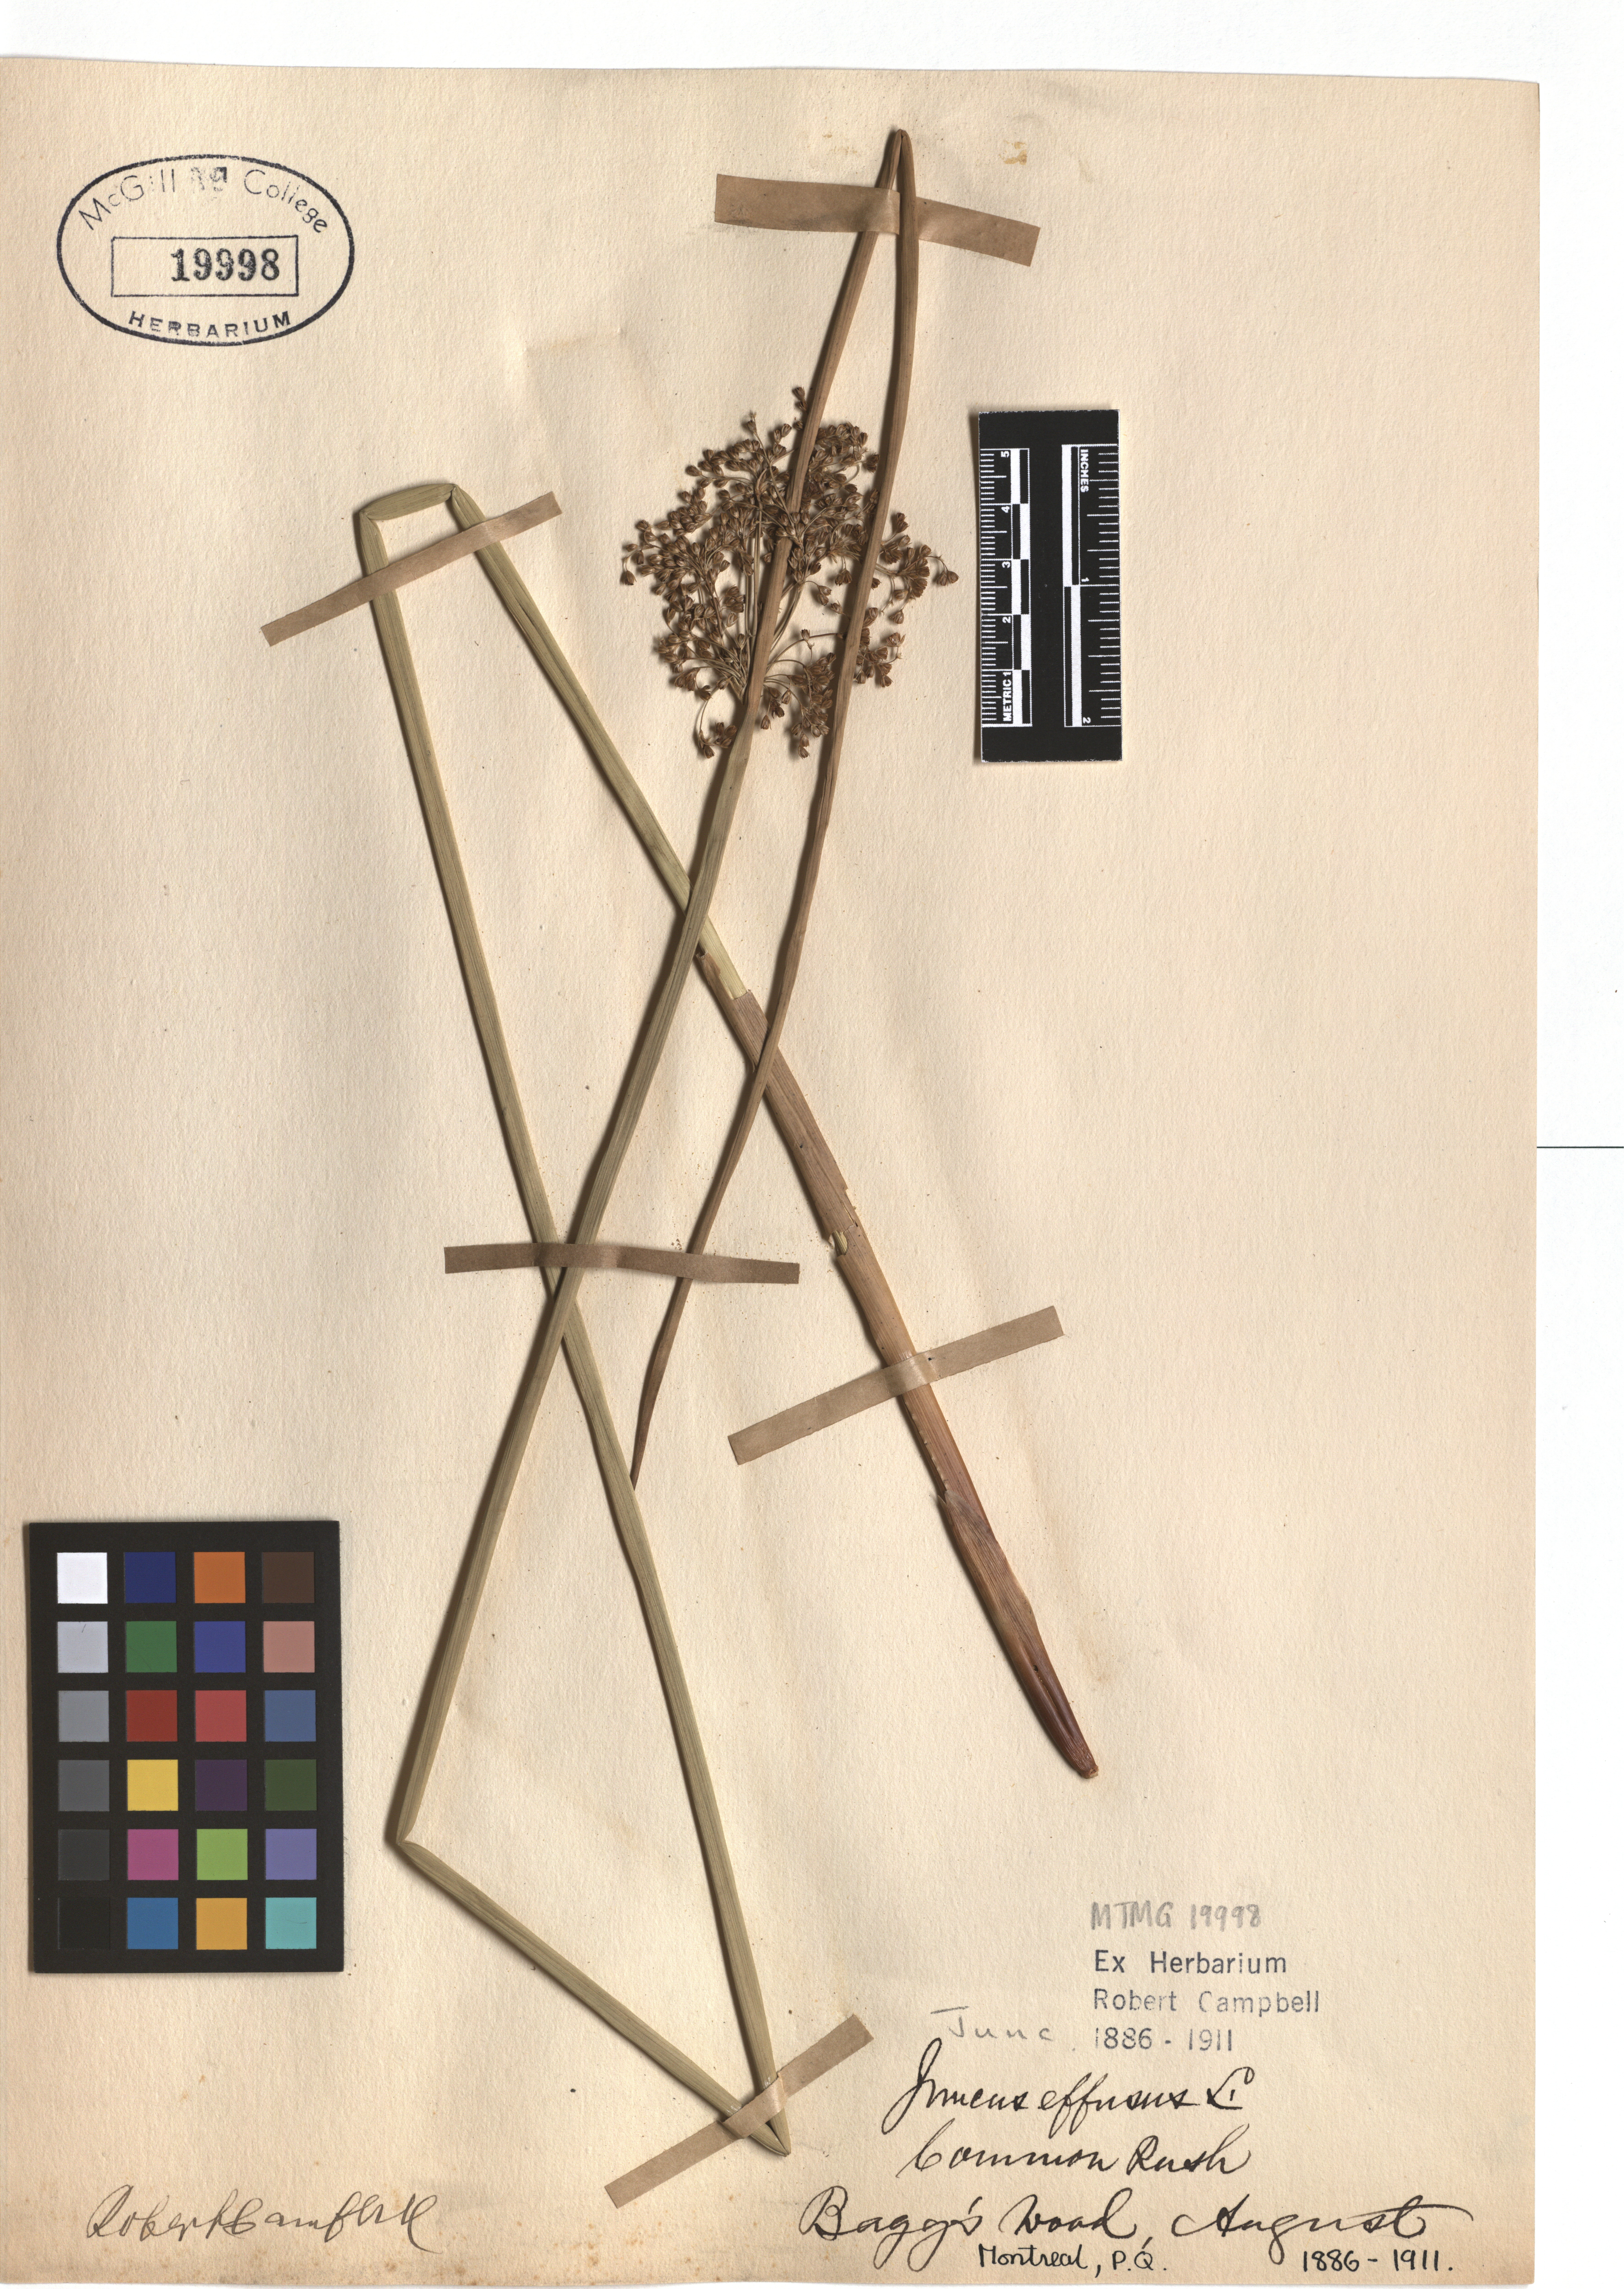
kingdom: Plantae
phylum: Tracheophyta
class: Liliopsida
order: Poales
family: Juncaceae
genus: Juncus
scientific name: Juncus effusus
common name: Soft rush
